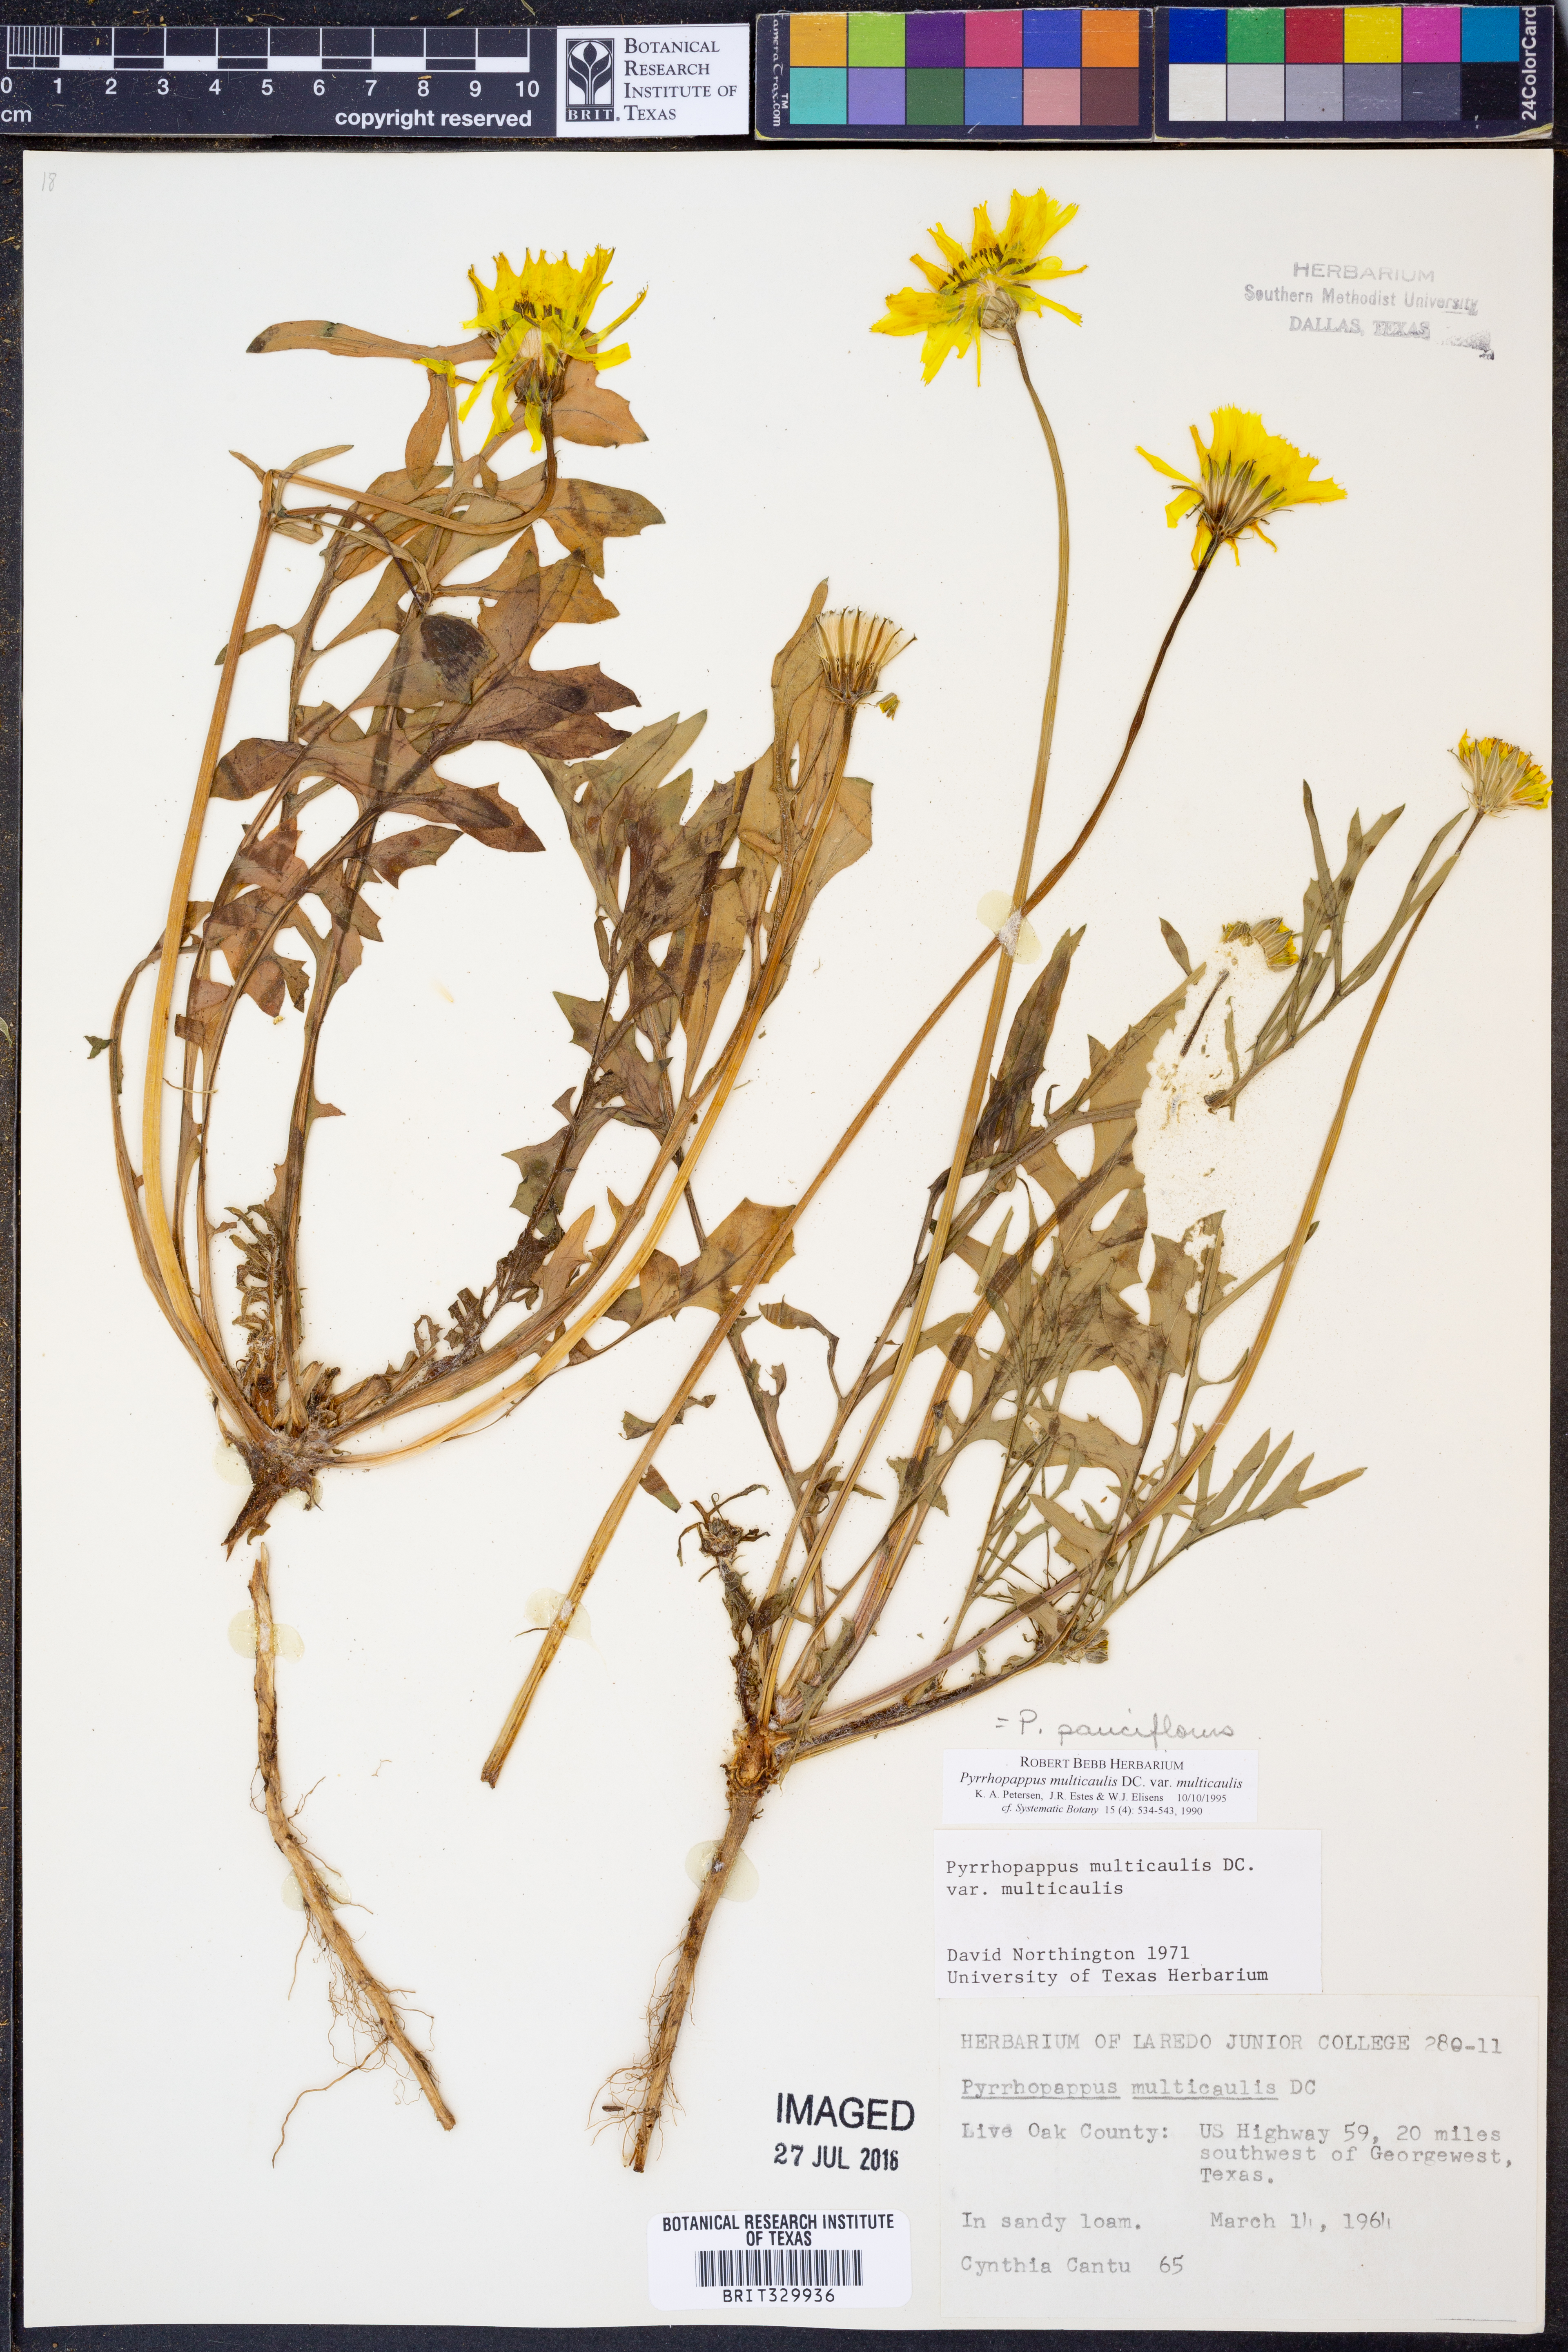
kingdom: Plantae
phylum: Tracheophyta
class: Magnoliopsida
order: Asterales
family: Asteraceae
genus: Pyrrhopappus
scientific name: Pyrrhopappus pauciflorus
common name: Texas false dandelion
